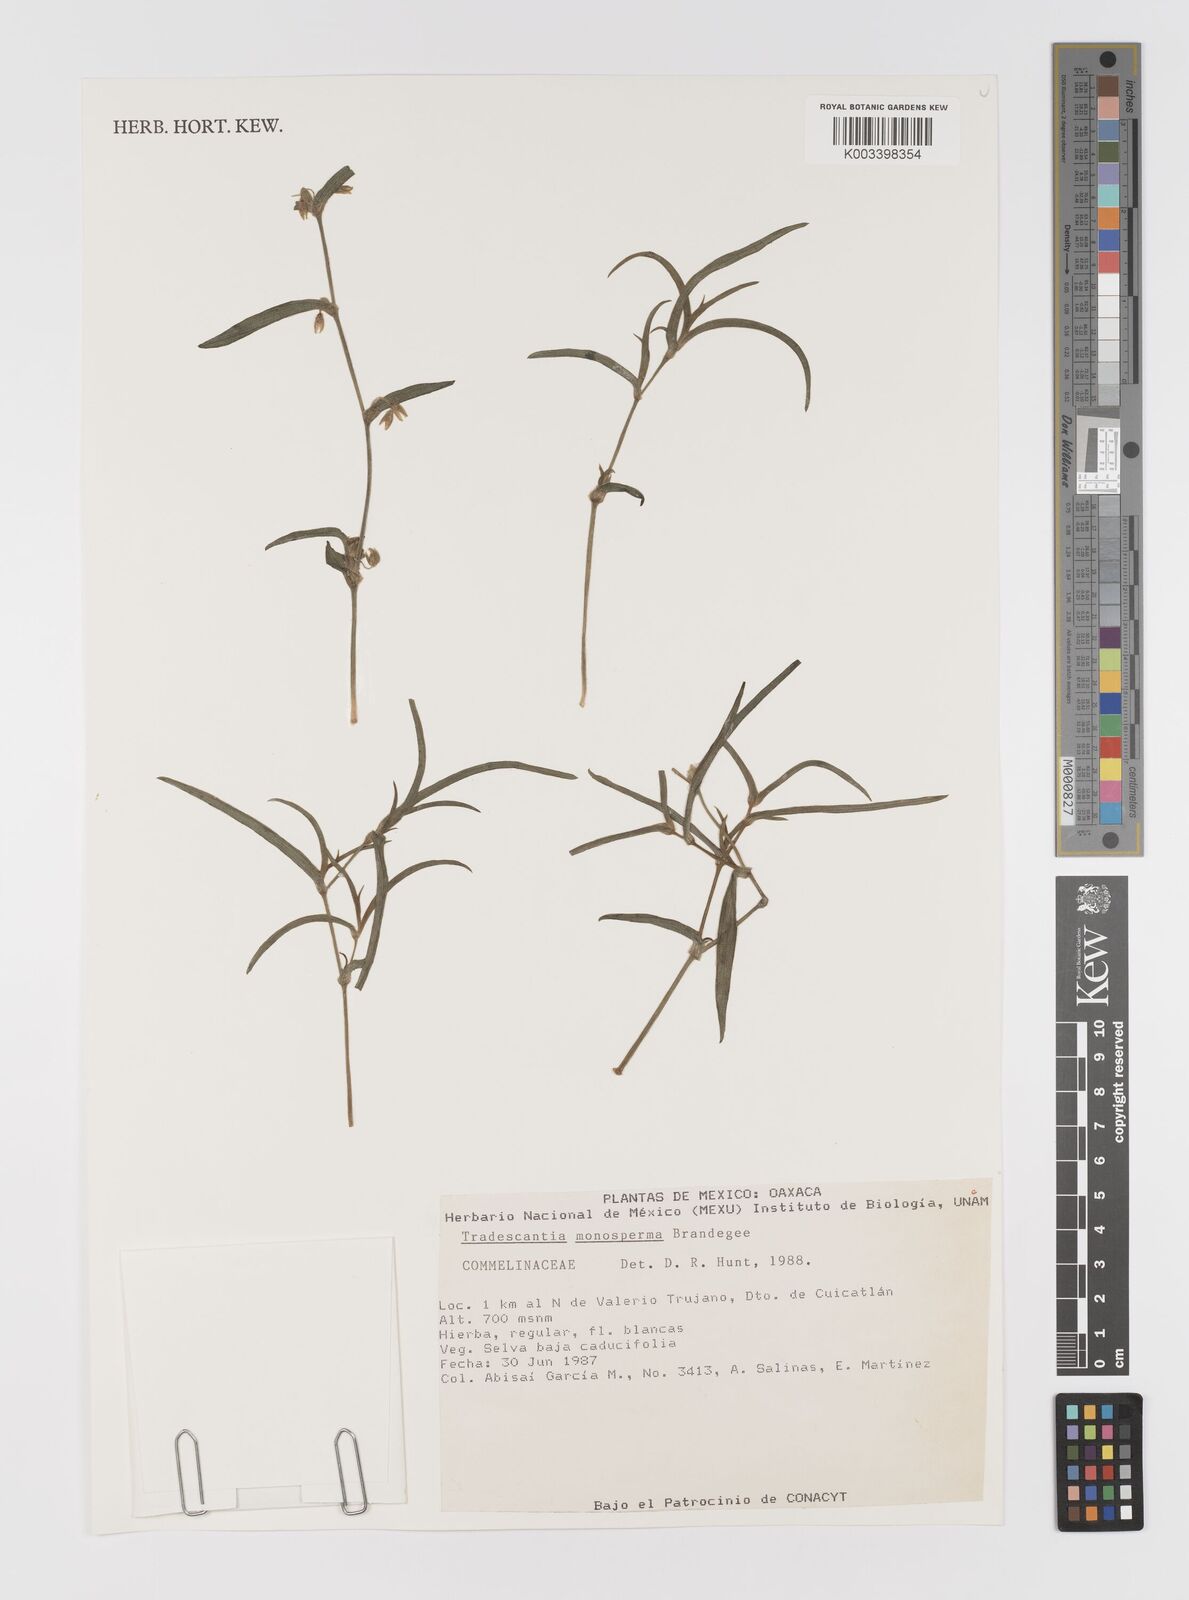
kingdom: Plantae
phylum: Tracheophyta
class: Liliopsida
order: Commelinales
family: Commelinaceae
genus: Tradescantia
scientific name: Tradescantia monosperma
